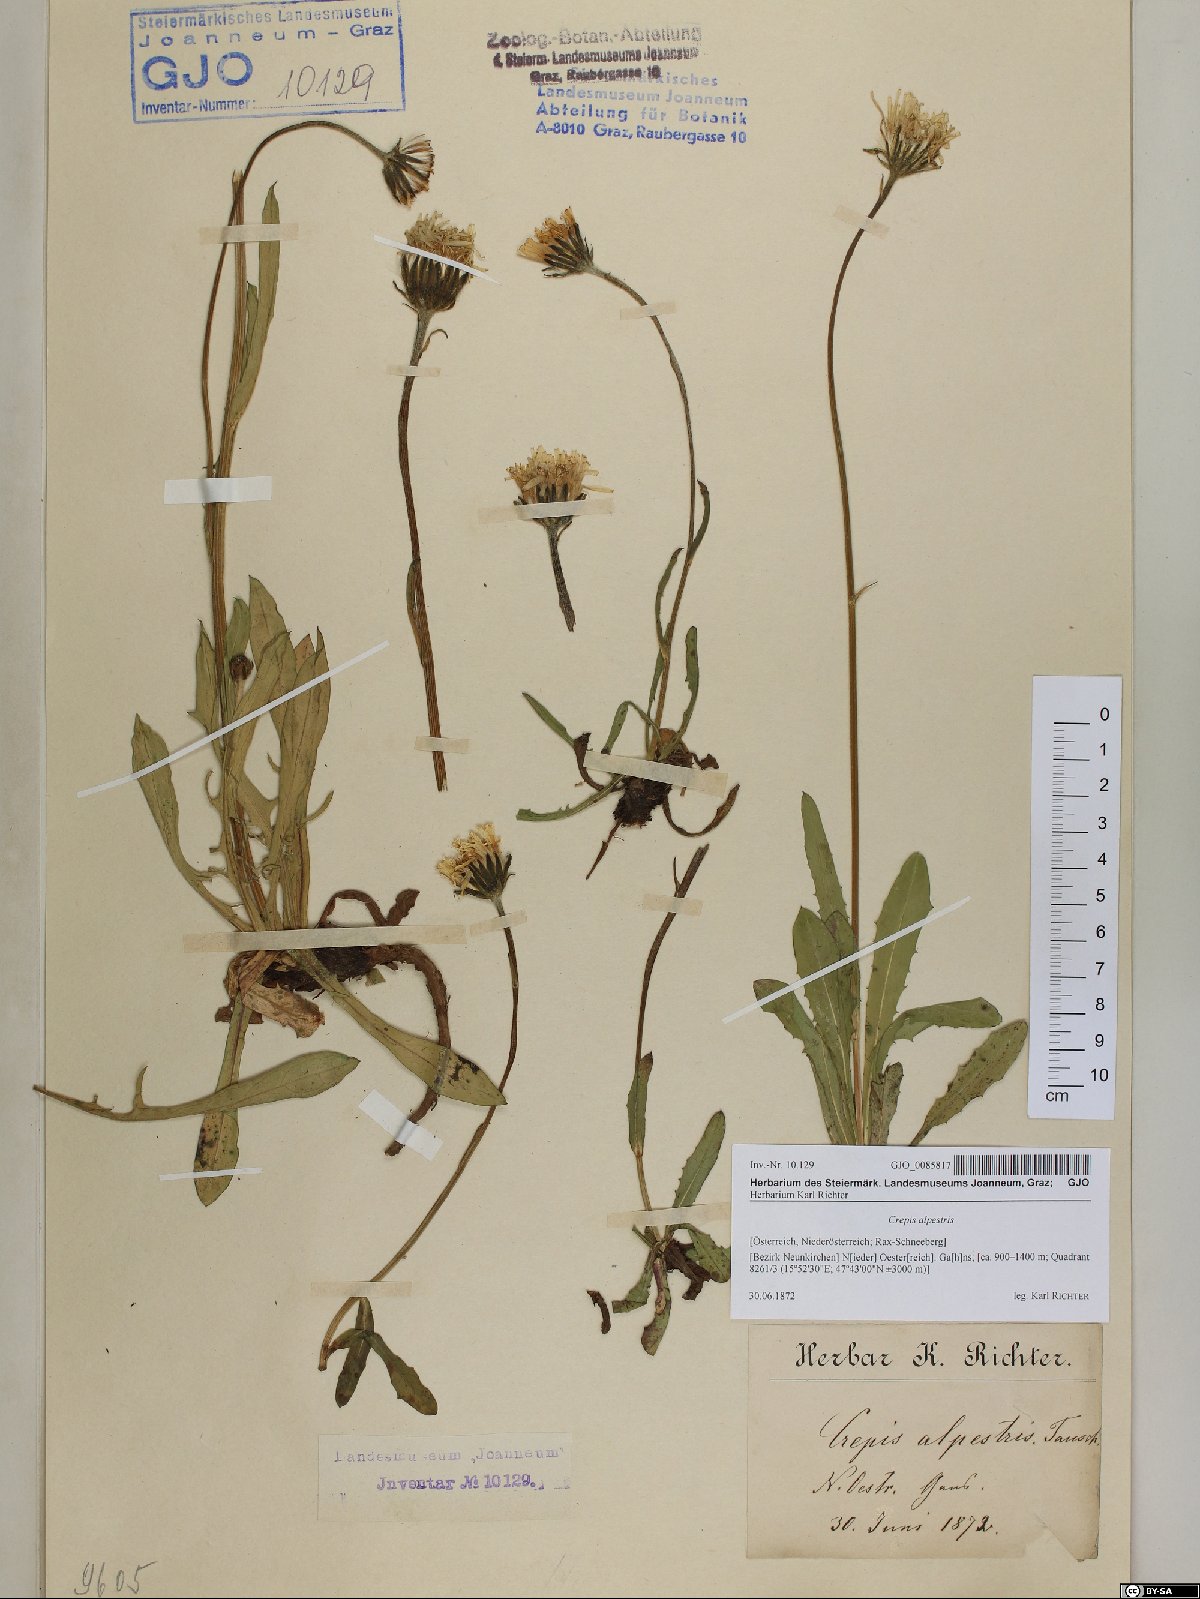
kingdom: Plantae
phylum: Tracheophyta
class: Magnoliopsida
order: Asterales
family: Asteraceae
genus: Crepis
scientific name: Crepis alpestris
